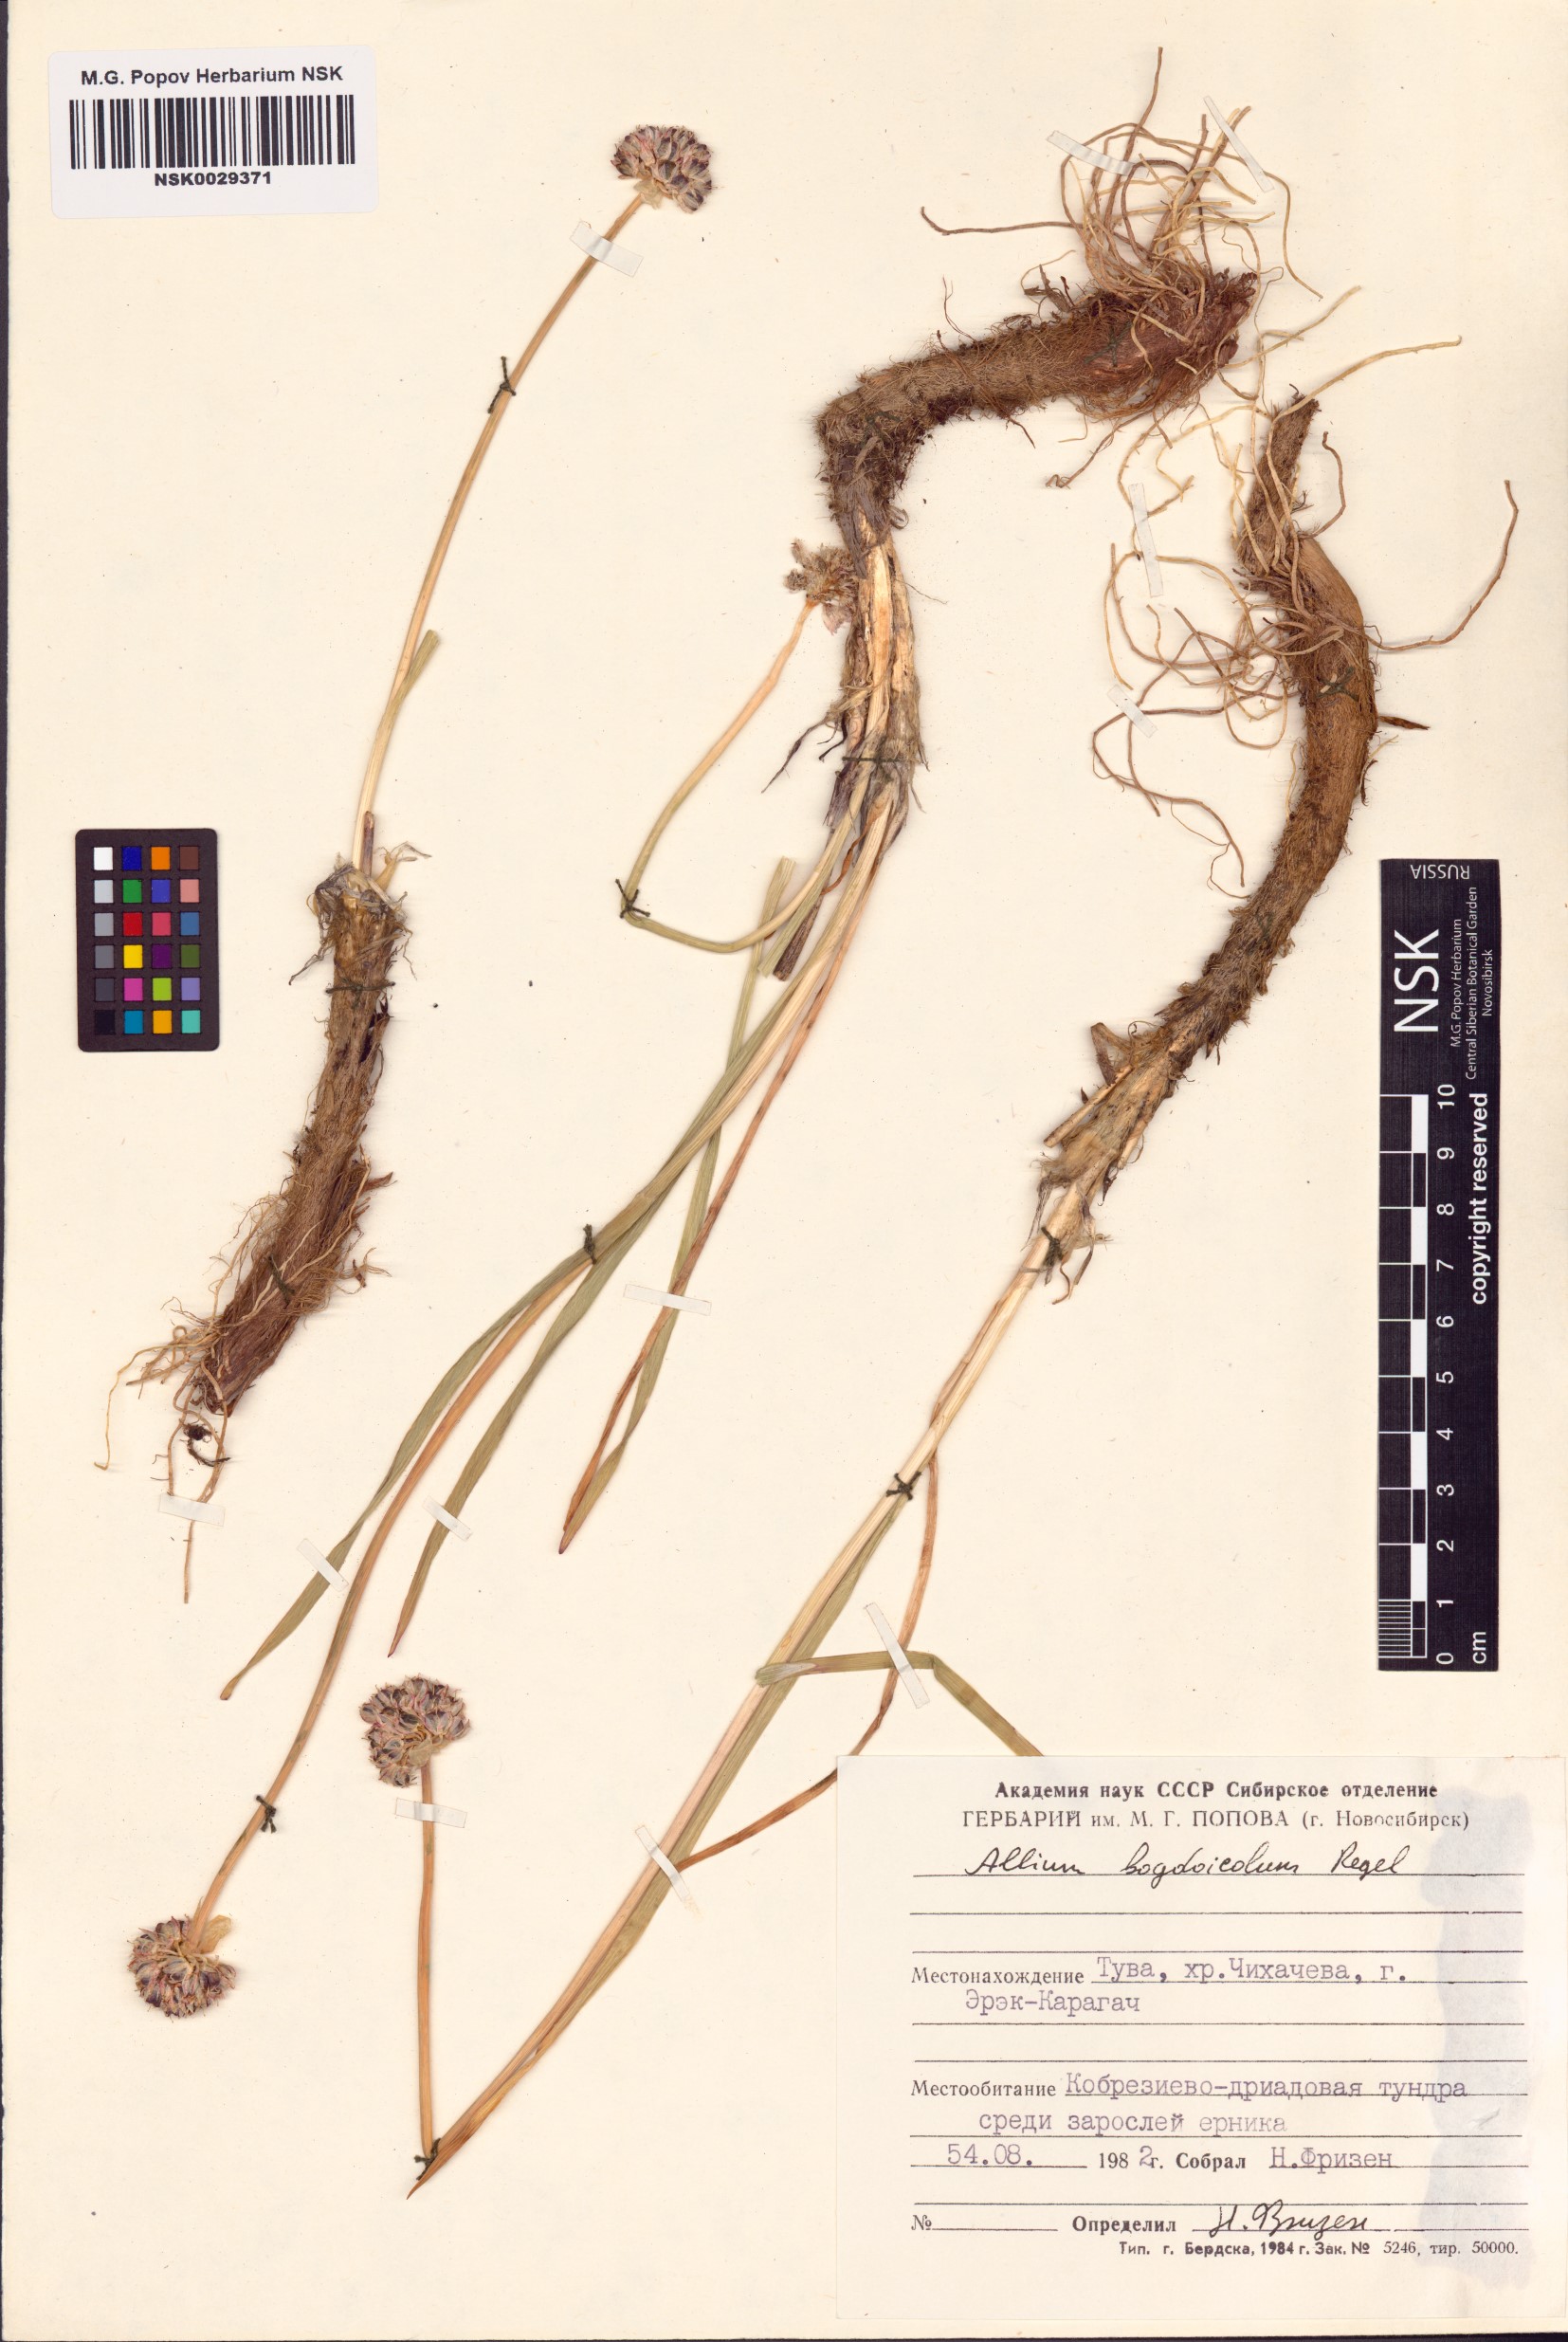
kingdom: Plantae
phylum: Tracheophyta
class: Liliopsida
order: Asparagales
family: Amaryllidaceae
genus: Allium
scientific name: Allium schrenkii
